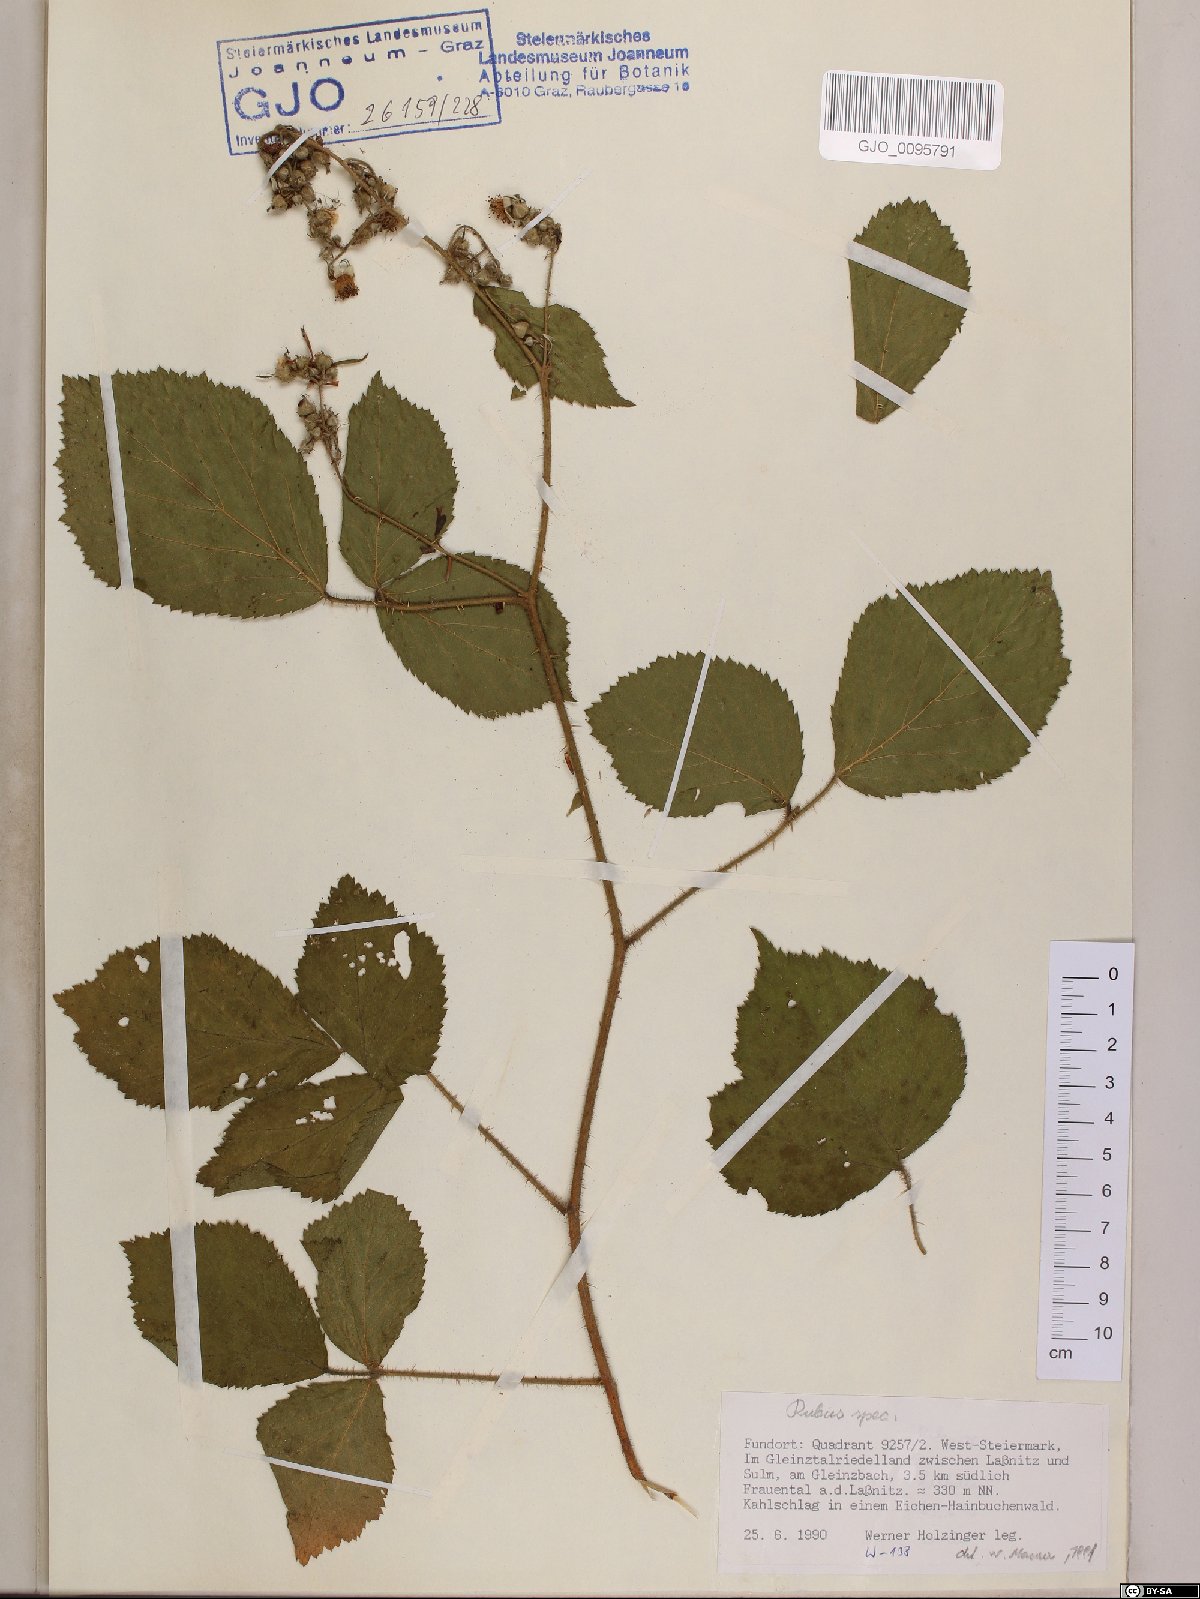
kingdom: Plantae
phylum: Tracheophyta
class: Magnoliopsida
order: Rosales
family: Rosaceae
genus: Rubus
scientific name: Rubus
